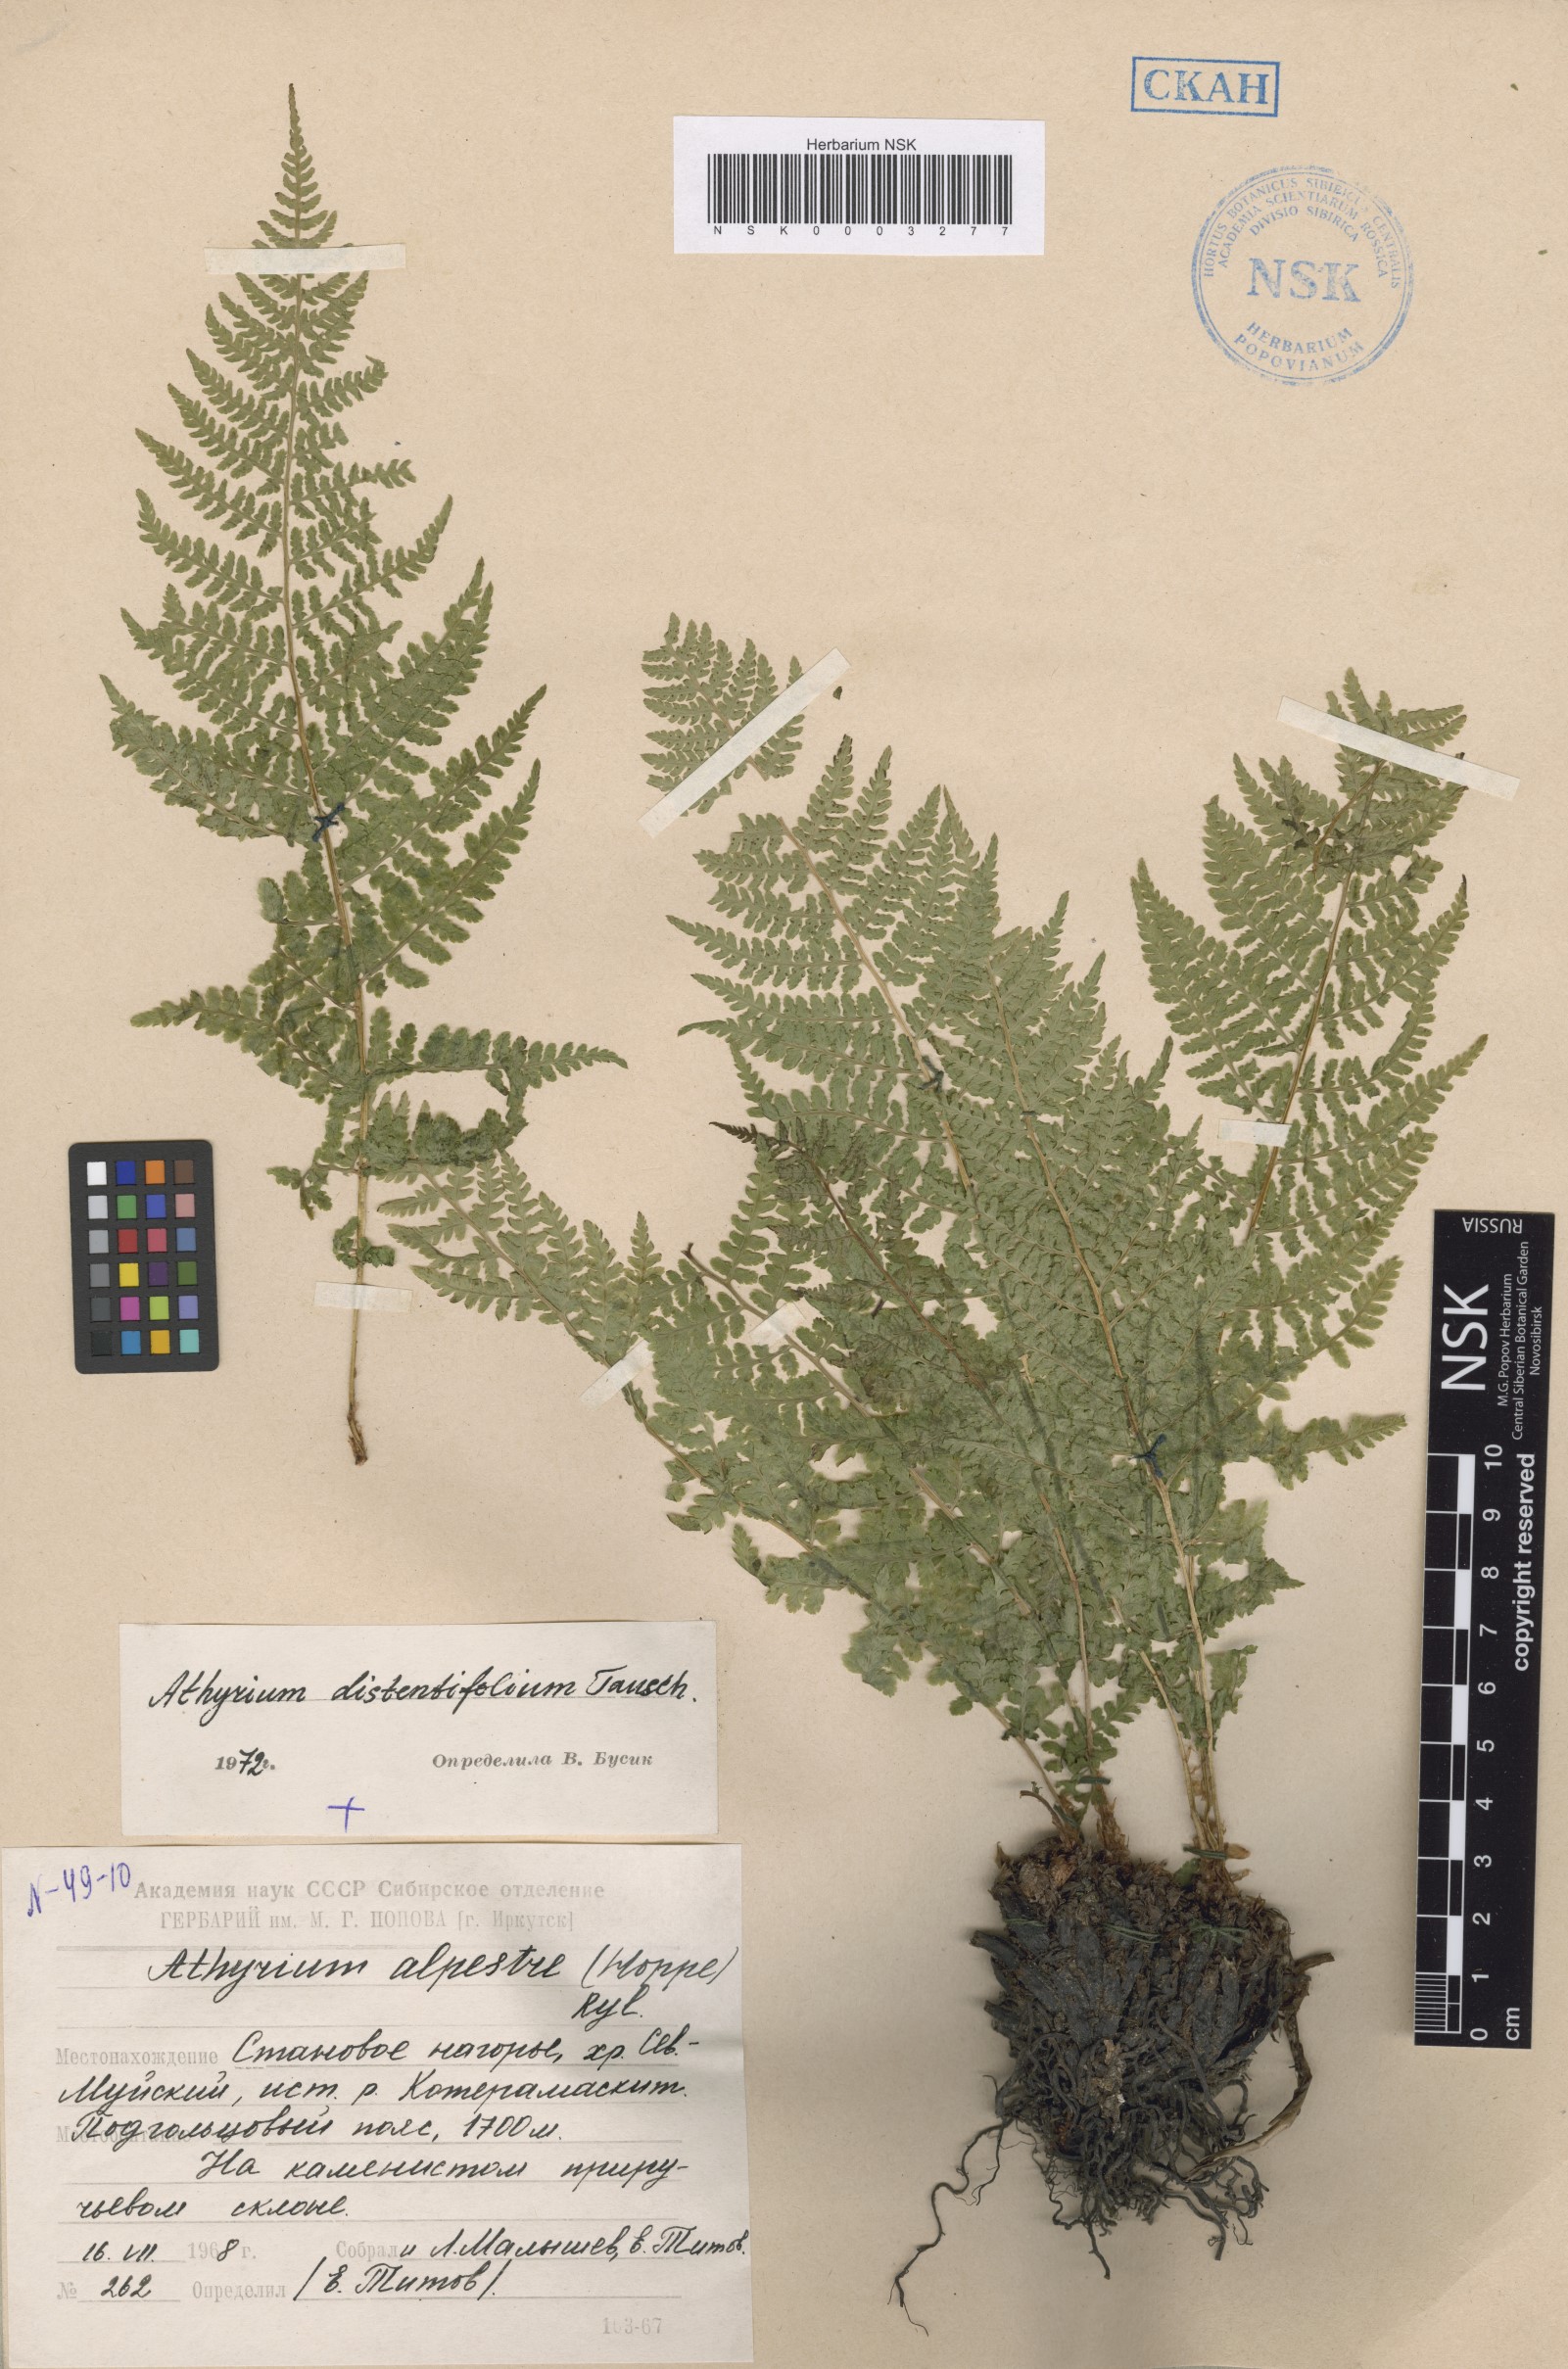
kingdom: Plantae
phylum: Tracheophyta
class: Polypodiopsida
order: Polypodiales
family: Athyriaceae
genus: Pseudathyrium
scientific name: Pseudathyrium alpestre
